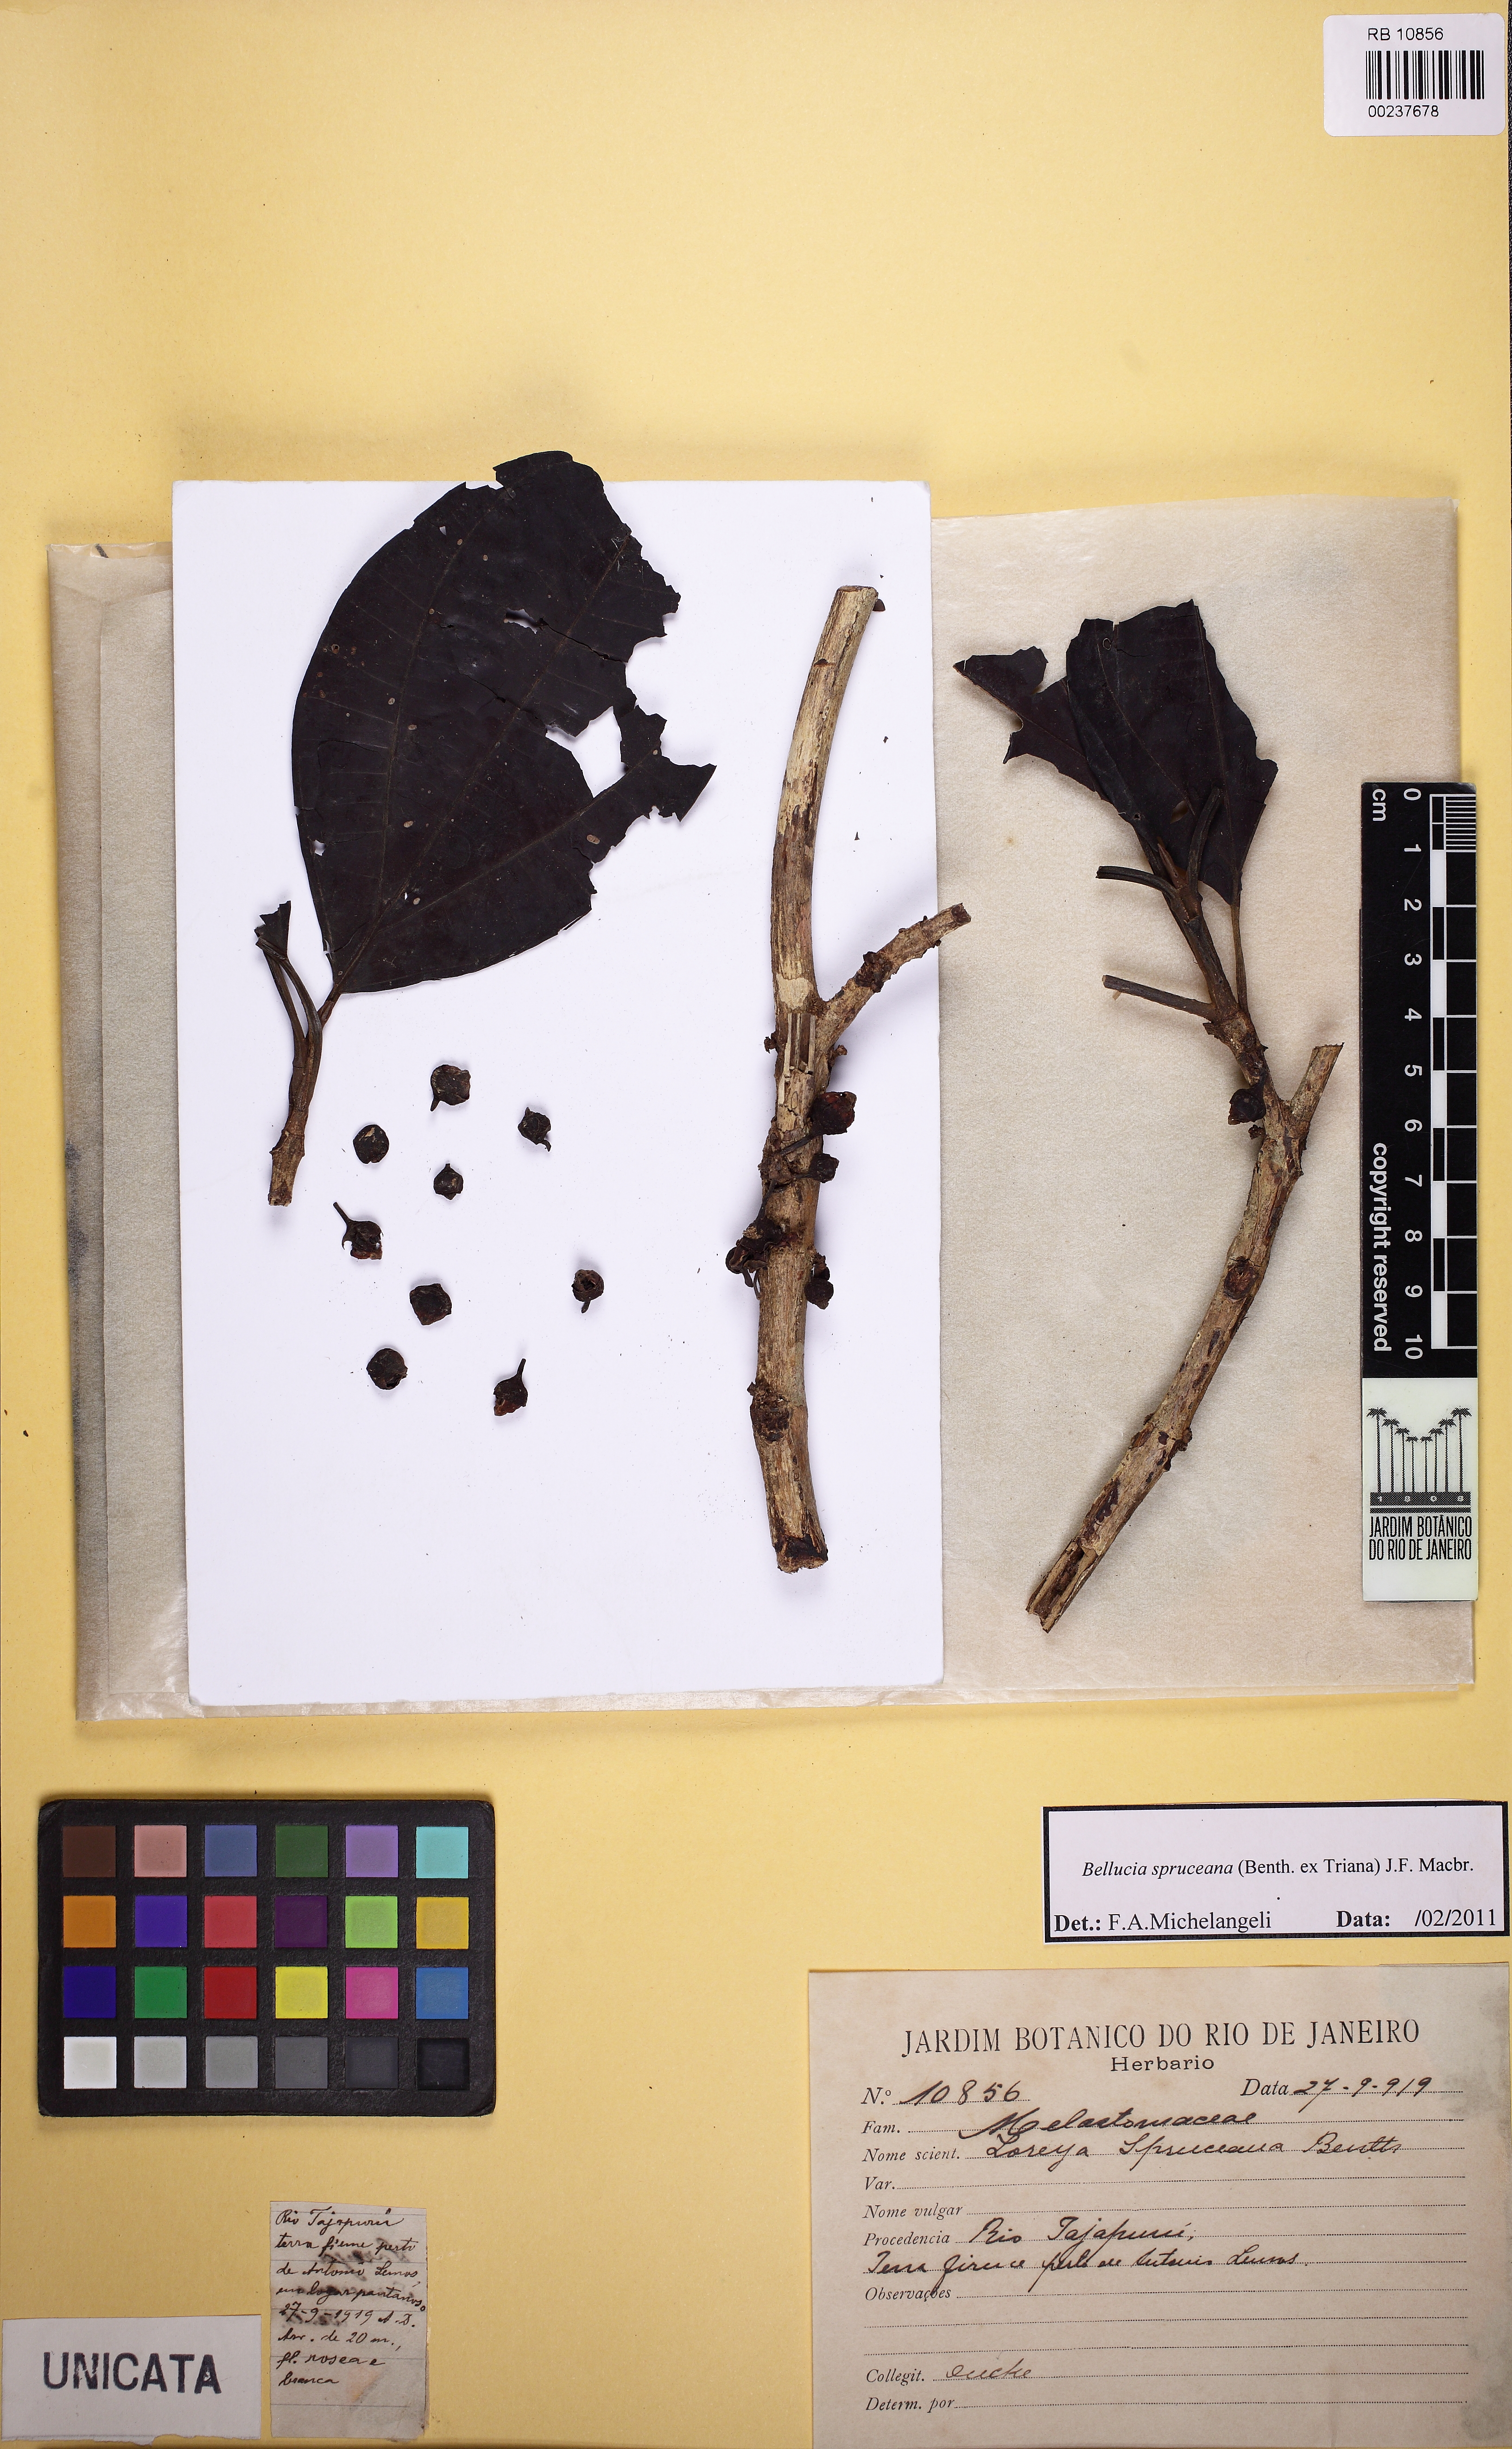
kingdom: Plantae
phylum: Tracheophyta
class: Magnoliopsida
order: Myrtales
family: Melastomataceae
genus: Bellucia
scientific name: Bellucia spruceana
